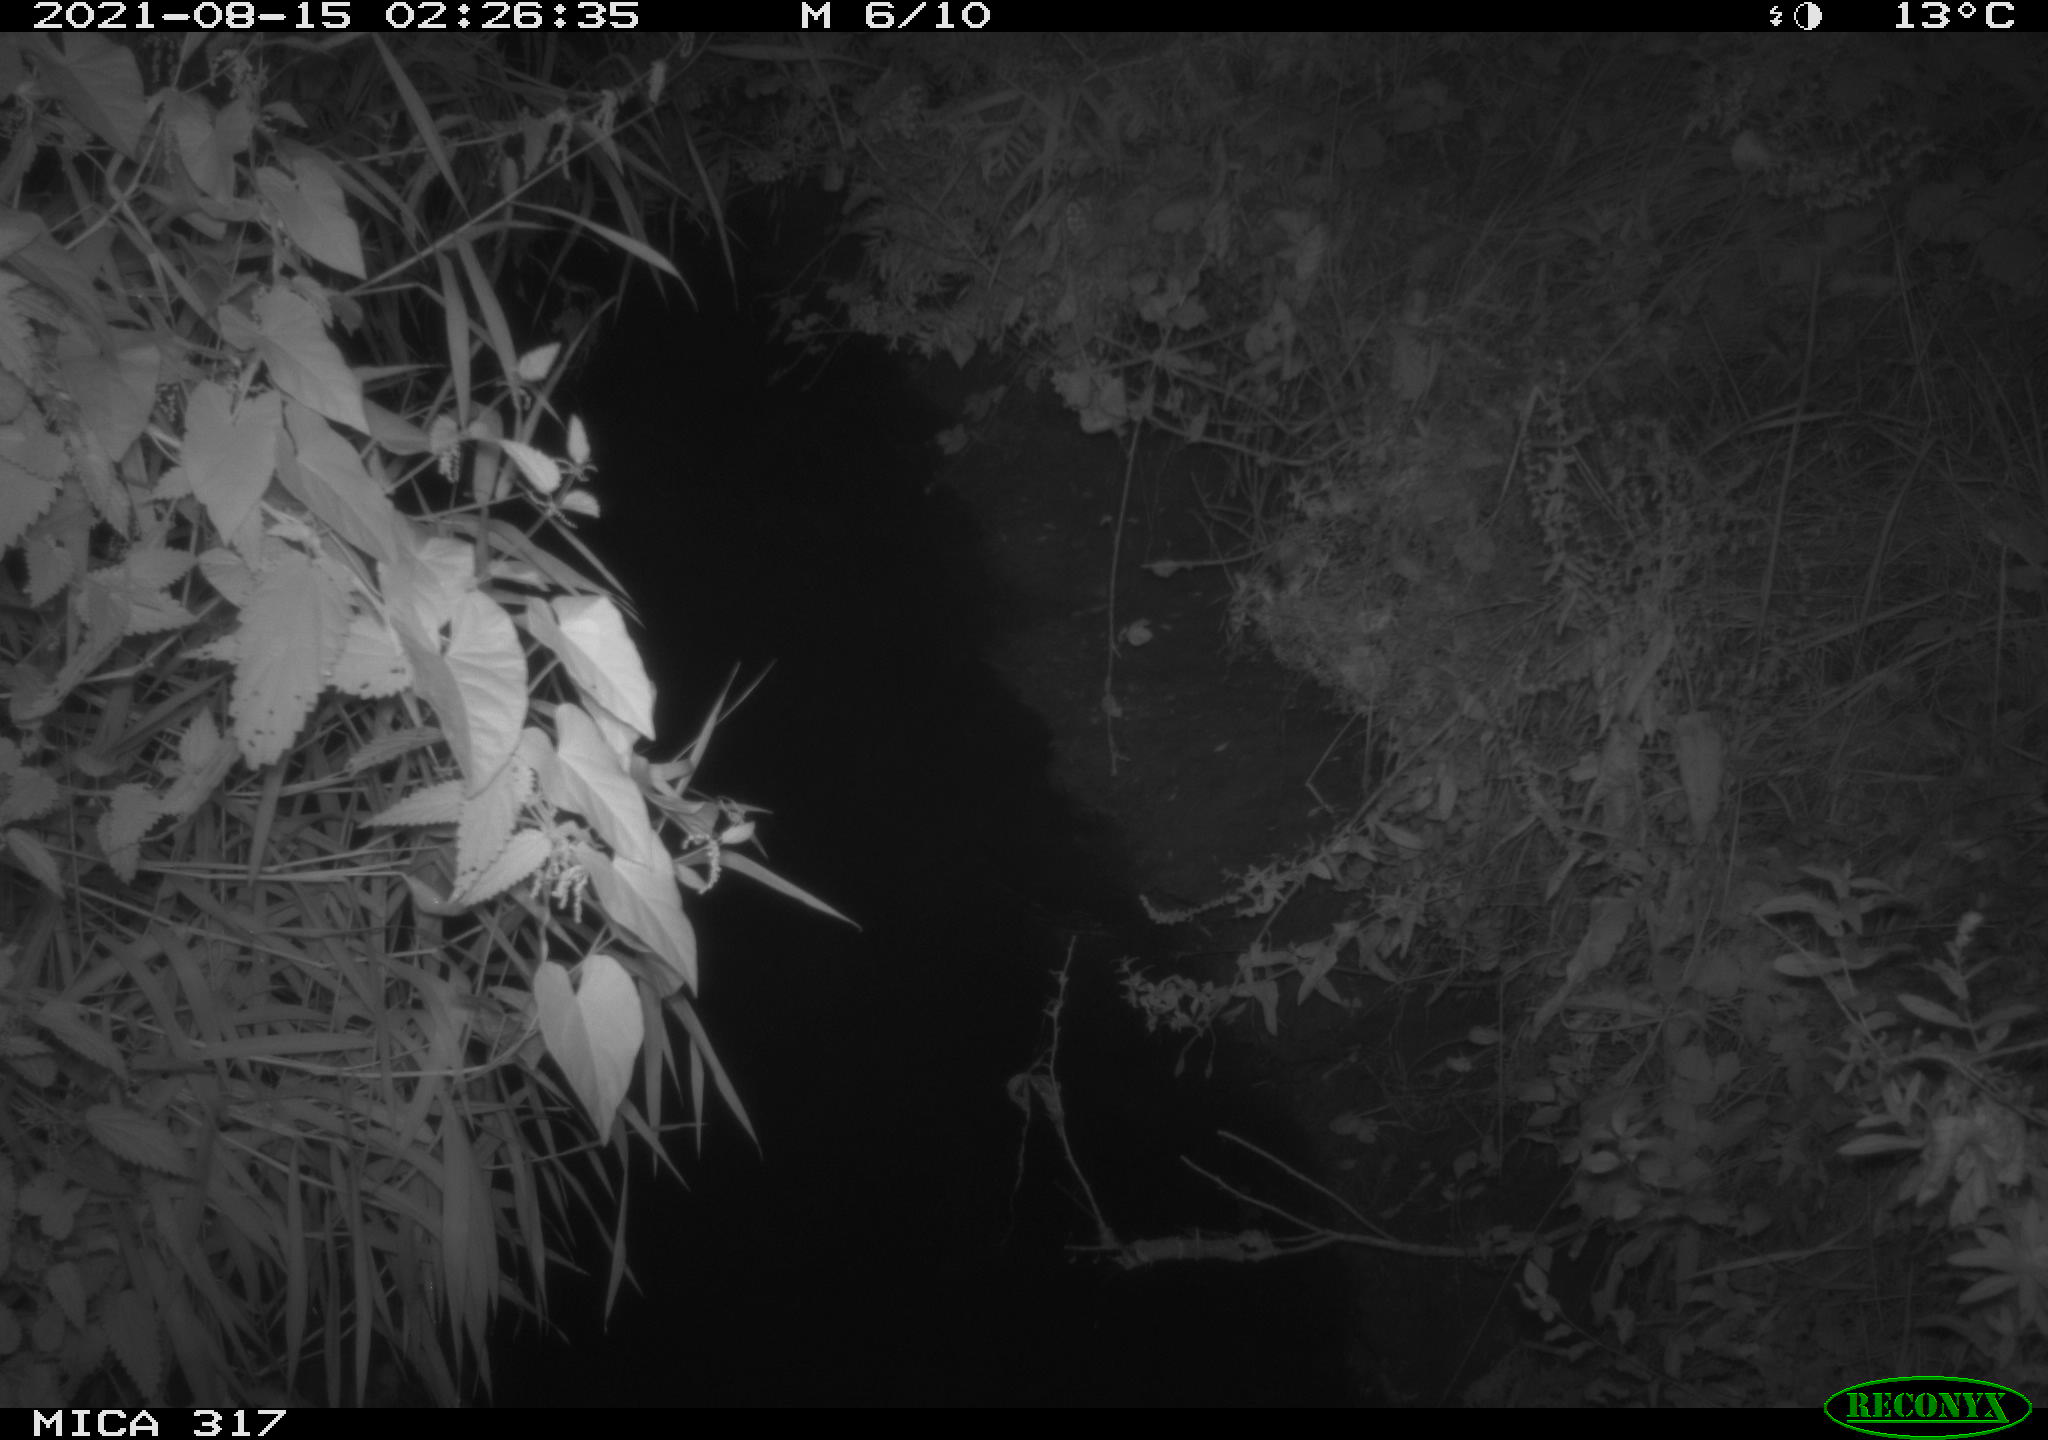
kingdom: Animalia
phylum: Chordata
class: Mammalia
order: Carnivora
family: Canidae
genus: Vulpes
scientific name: Vulpes vulpes
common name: Red fox
